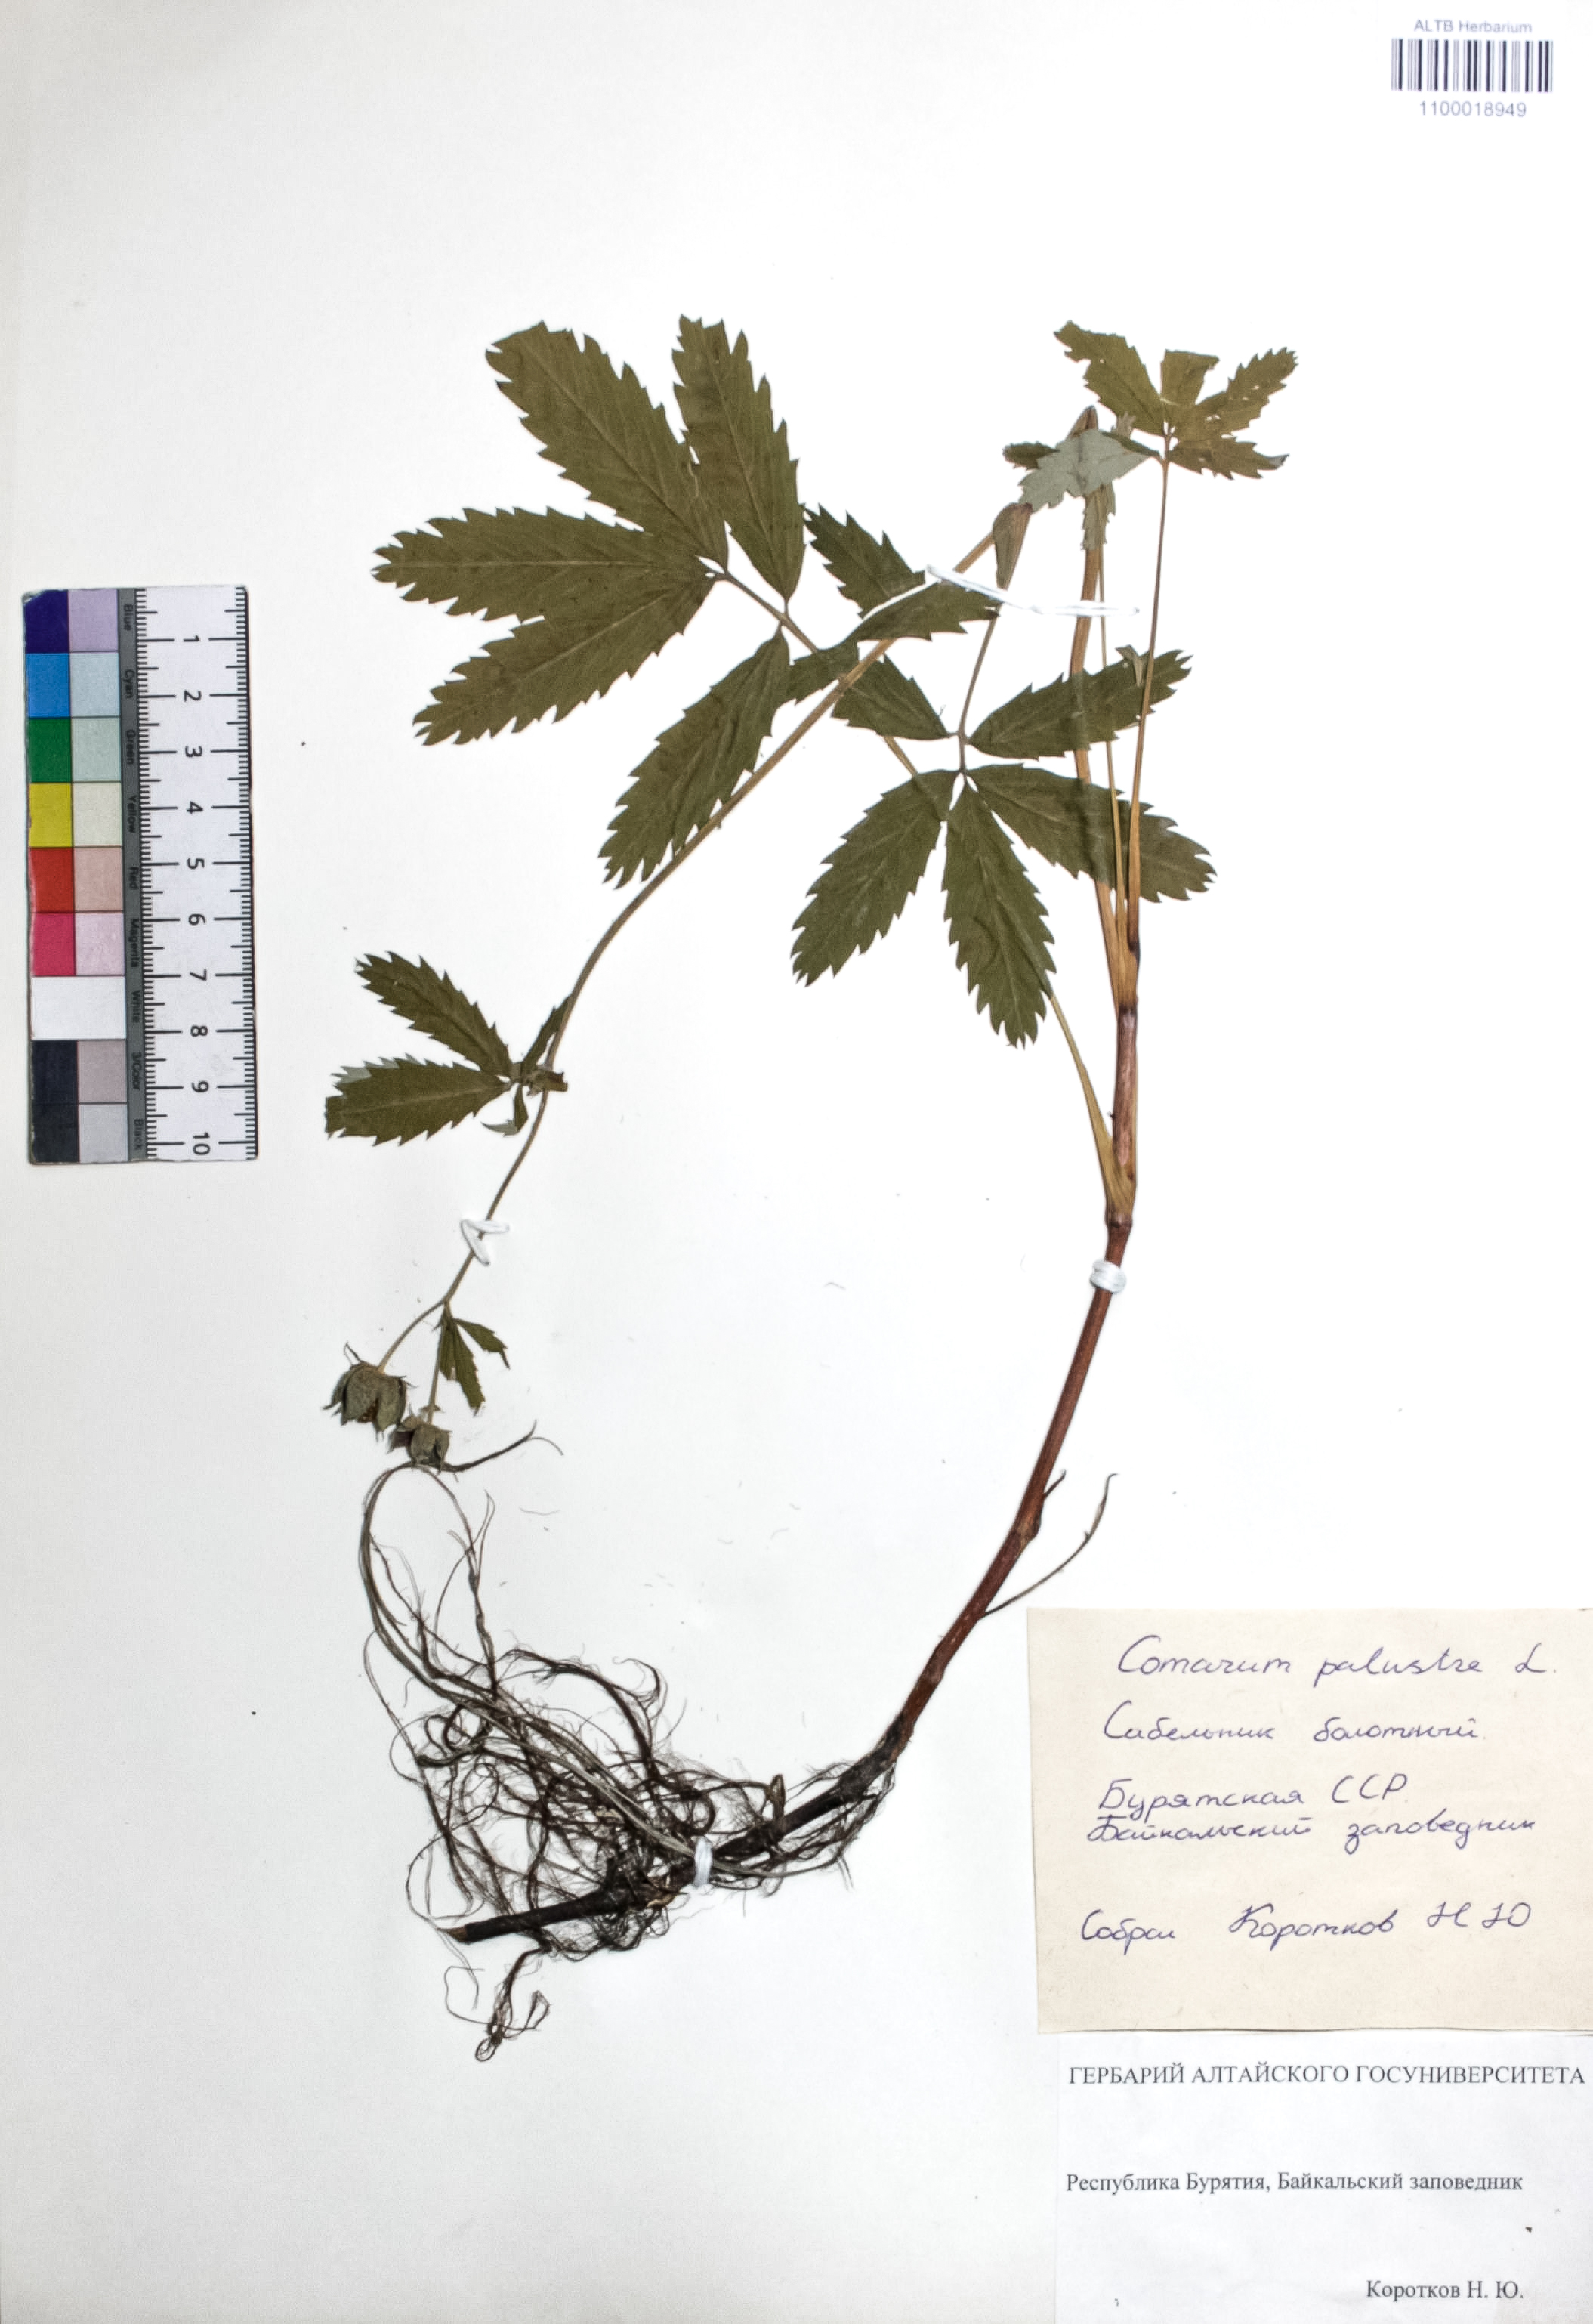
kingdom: Plantae
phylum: Tracheophyta
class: Magnoliopsida
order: Rosales
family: Rosaceae
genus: Comarum
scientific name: Comarum palustre
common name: Marsh cinquefoil
